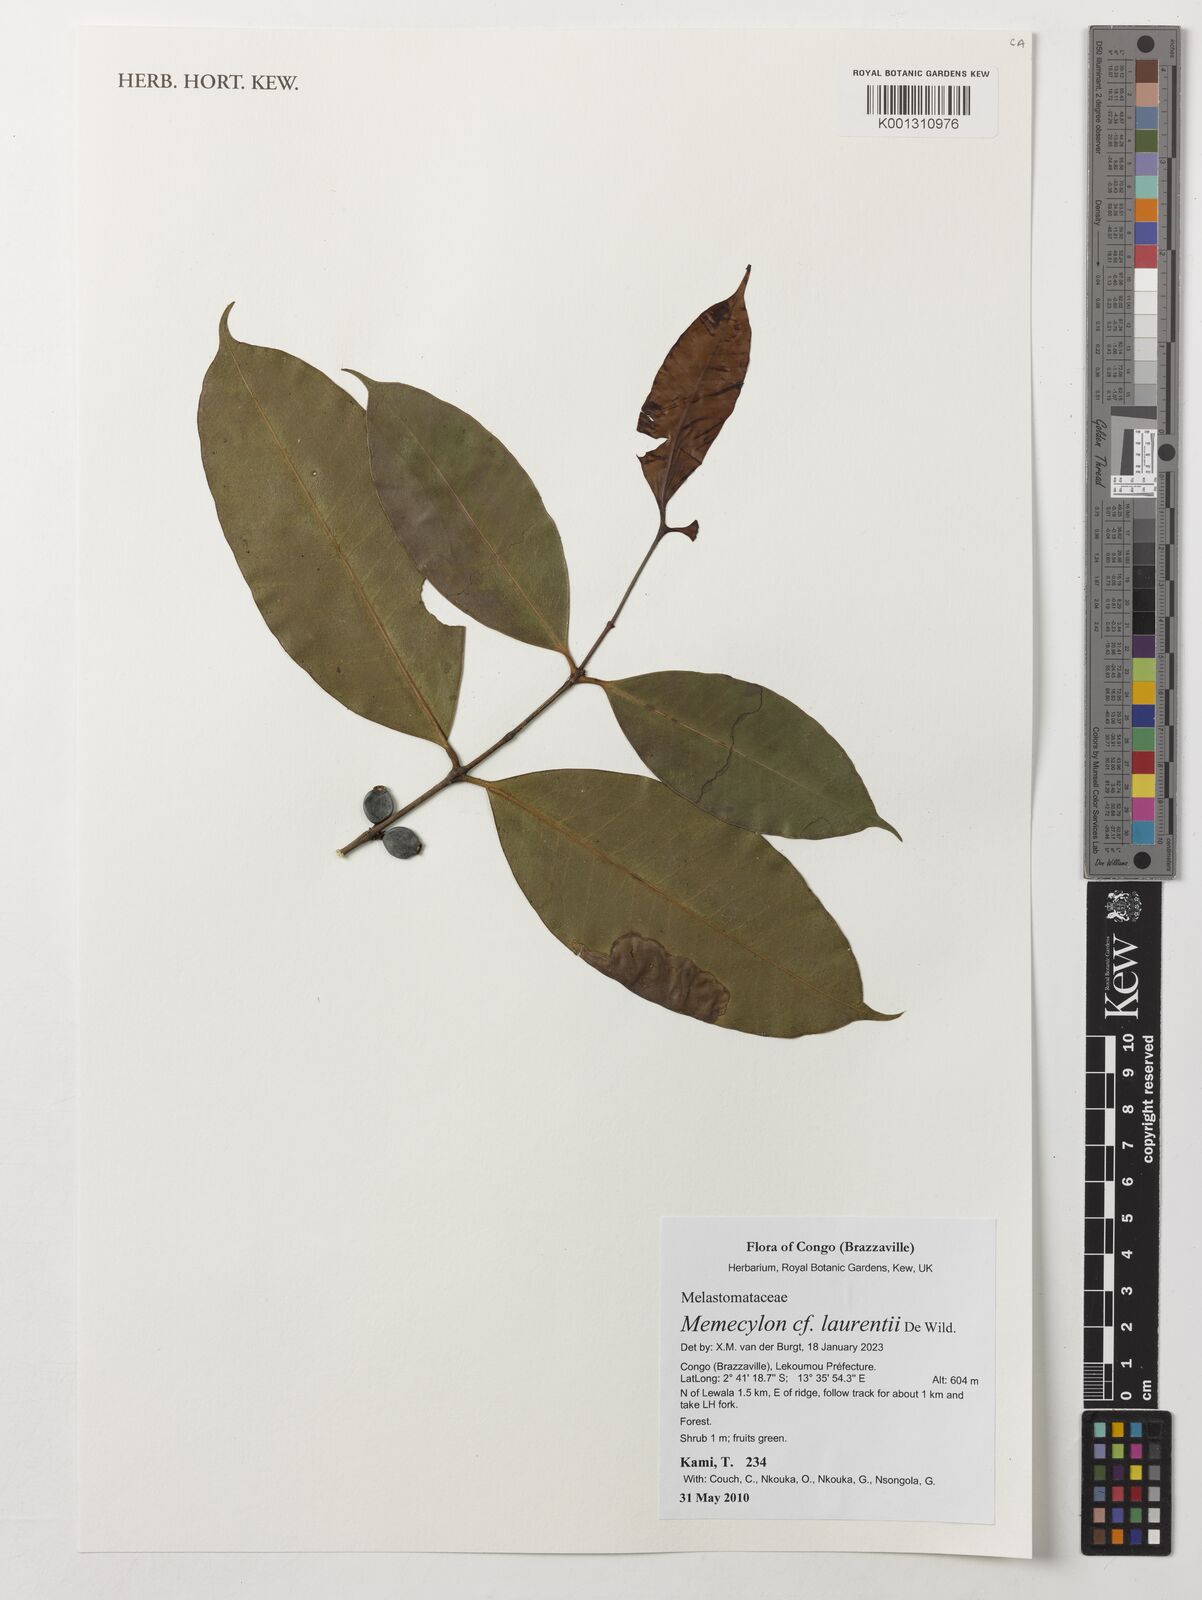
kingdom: Plantae
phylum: Tracheophyta
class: Magnoliopsida
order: Myrtales
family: Melastomataceae
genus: Memecylon
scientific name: Memecylon laurentii
